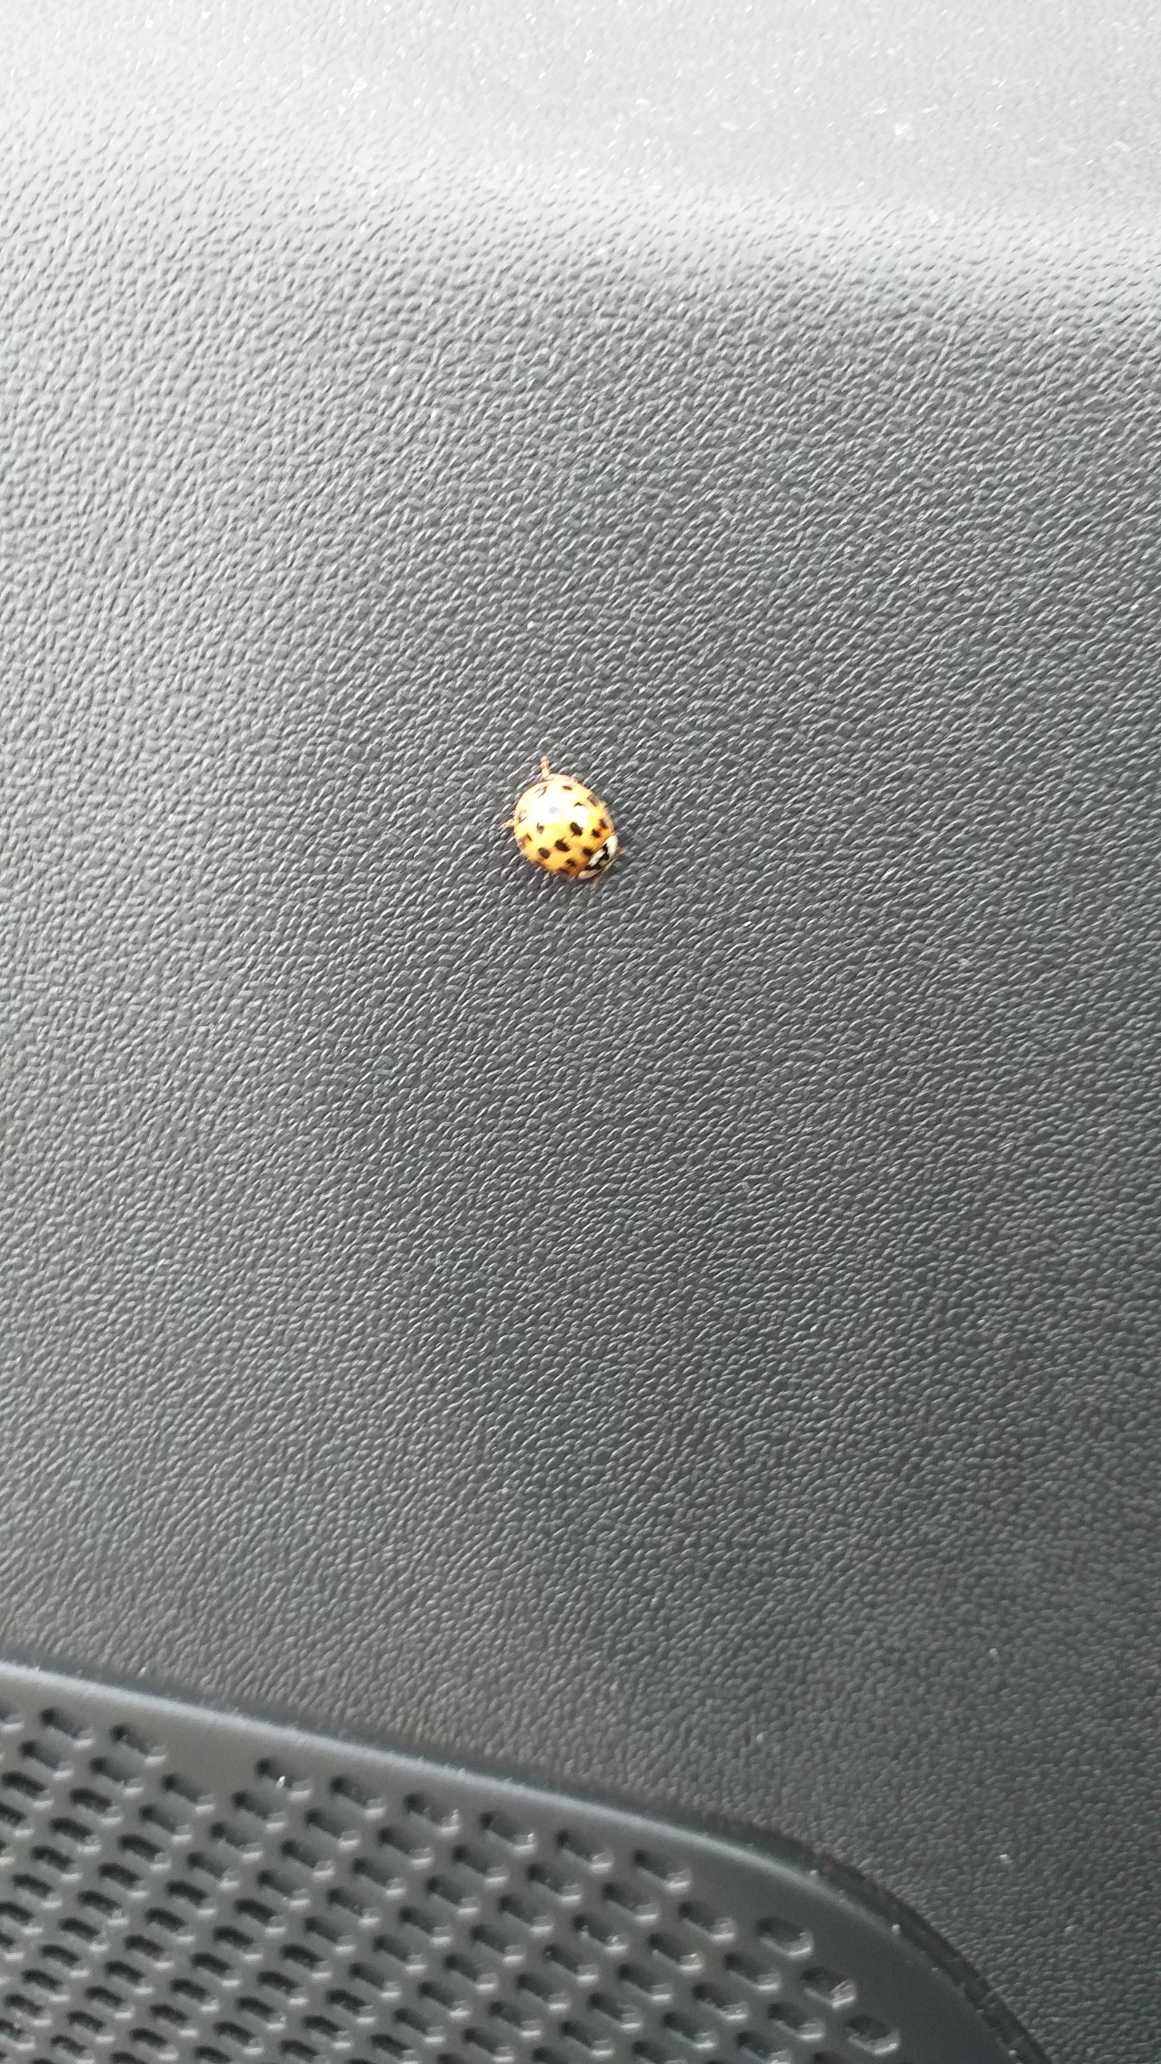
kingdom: Animalia
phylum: Arthropoda
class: Insecta
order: Coleoptera
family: Coccinellidae
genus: Harmonia
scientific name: Harmonia axyridis
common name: Harlekinmariehøne
